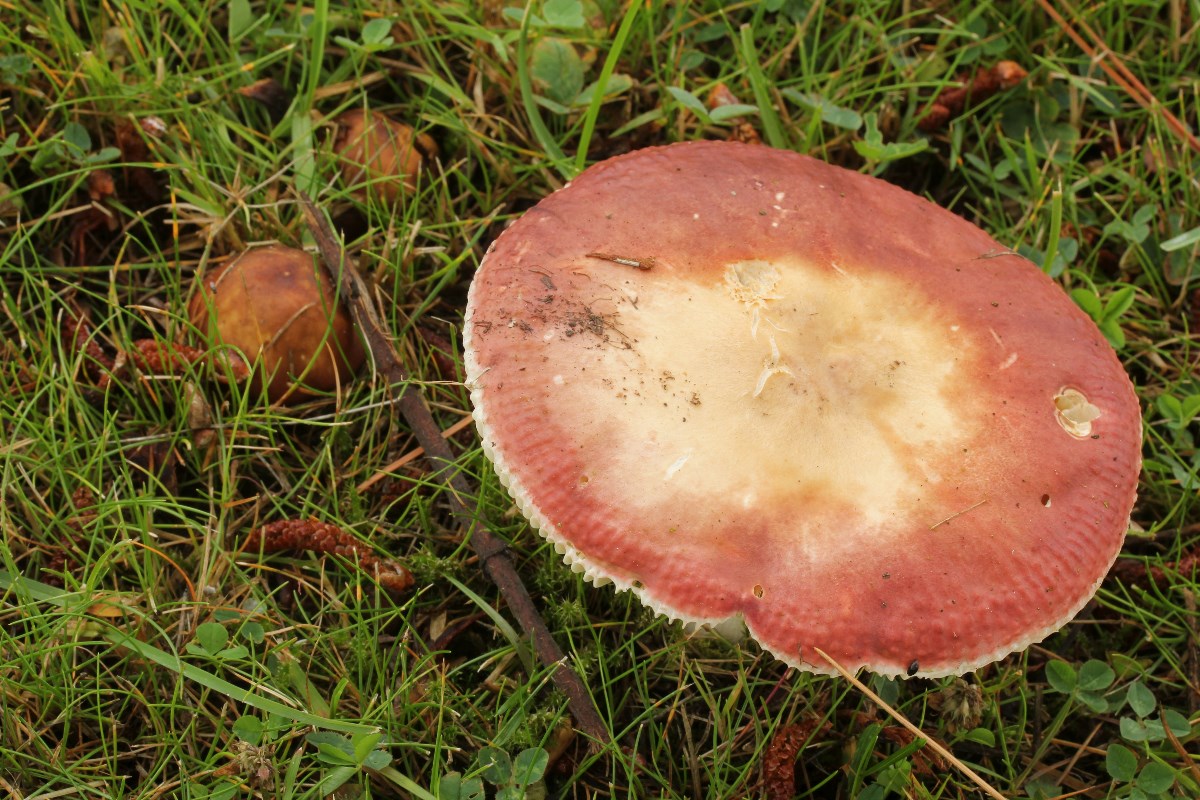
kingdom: Fungi
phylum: Basidiomycota
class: Agaricomycetes
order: Russulales
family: Russulaceae
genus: Russula
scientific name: Russula integra
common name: mandel-skørhat
